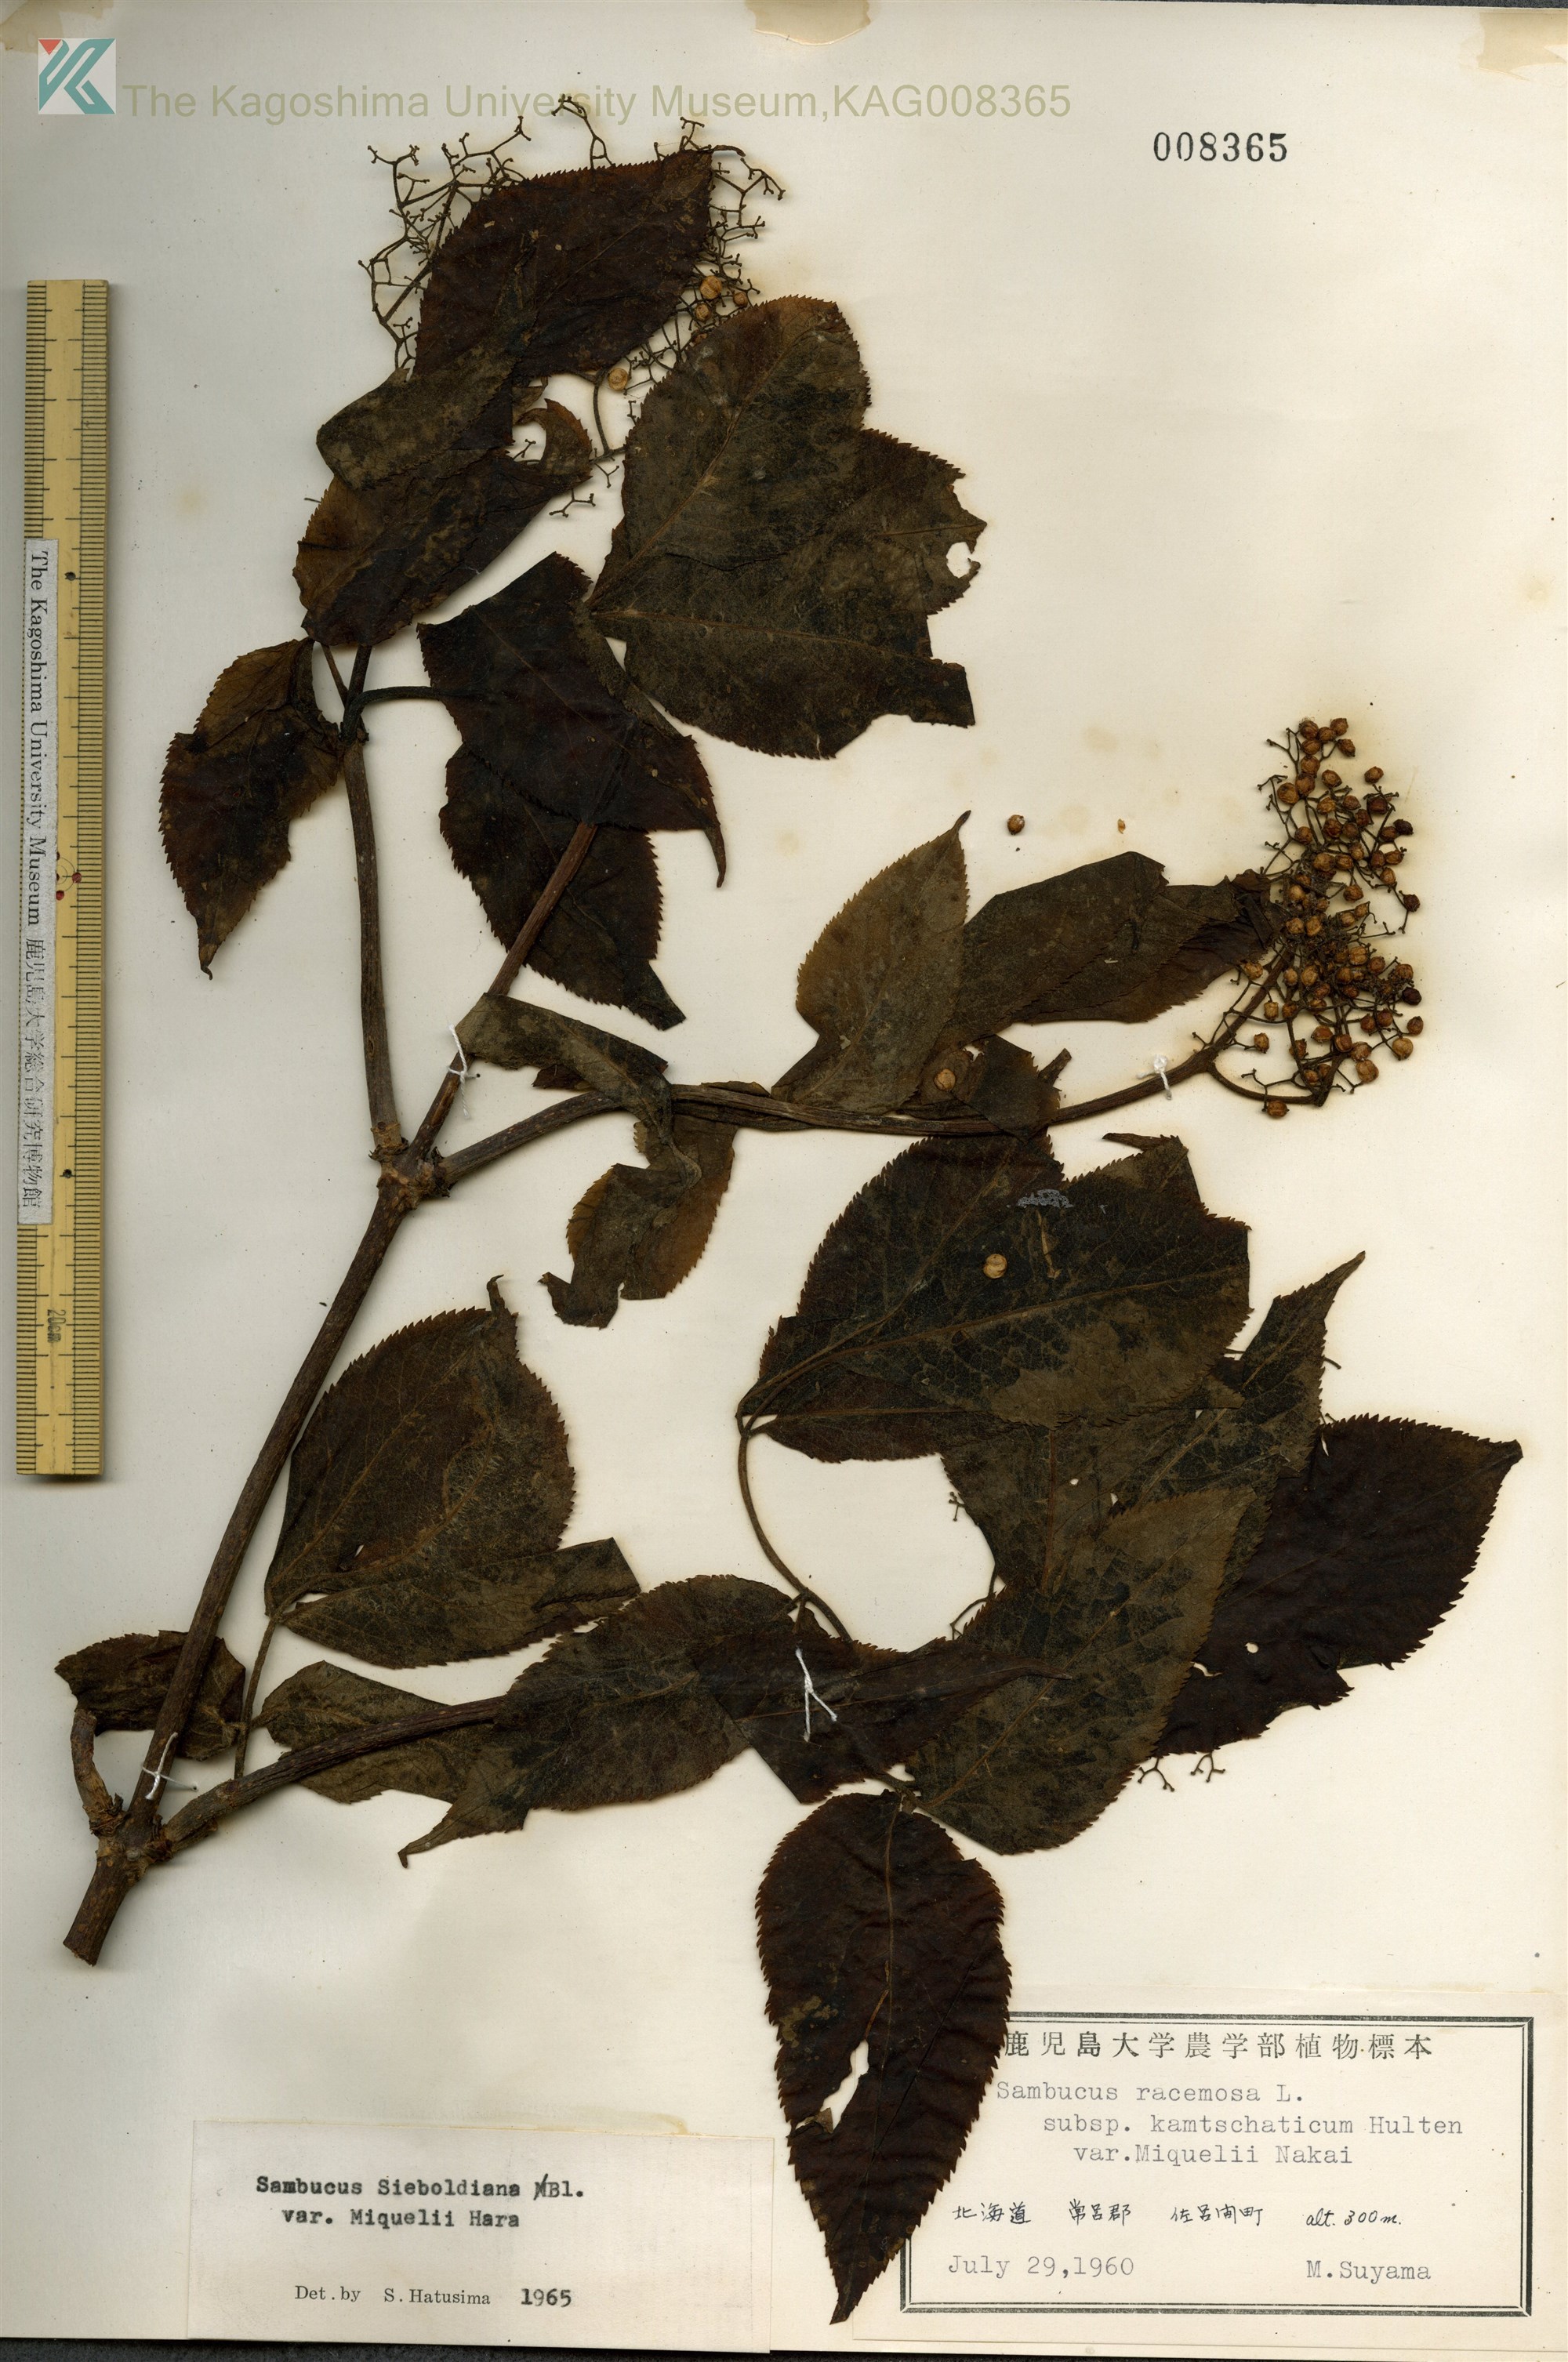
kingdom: Plantae
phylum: Tracheophyta
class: Magnoliopsida
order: Dipsacales
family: Viburnaceae
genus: Sambucus
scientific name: Sambucus kamtschatica
